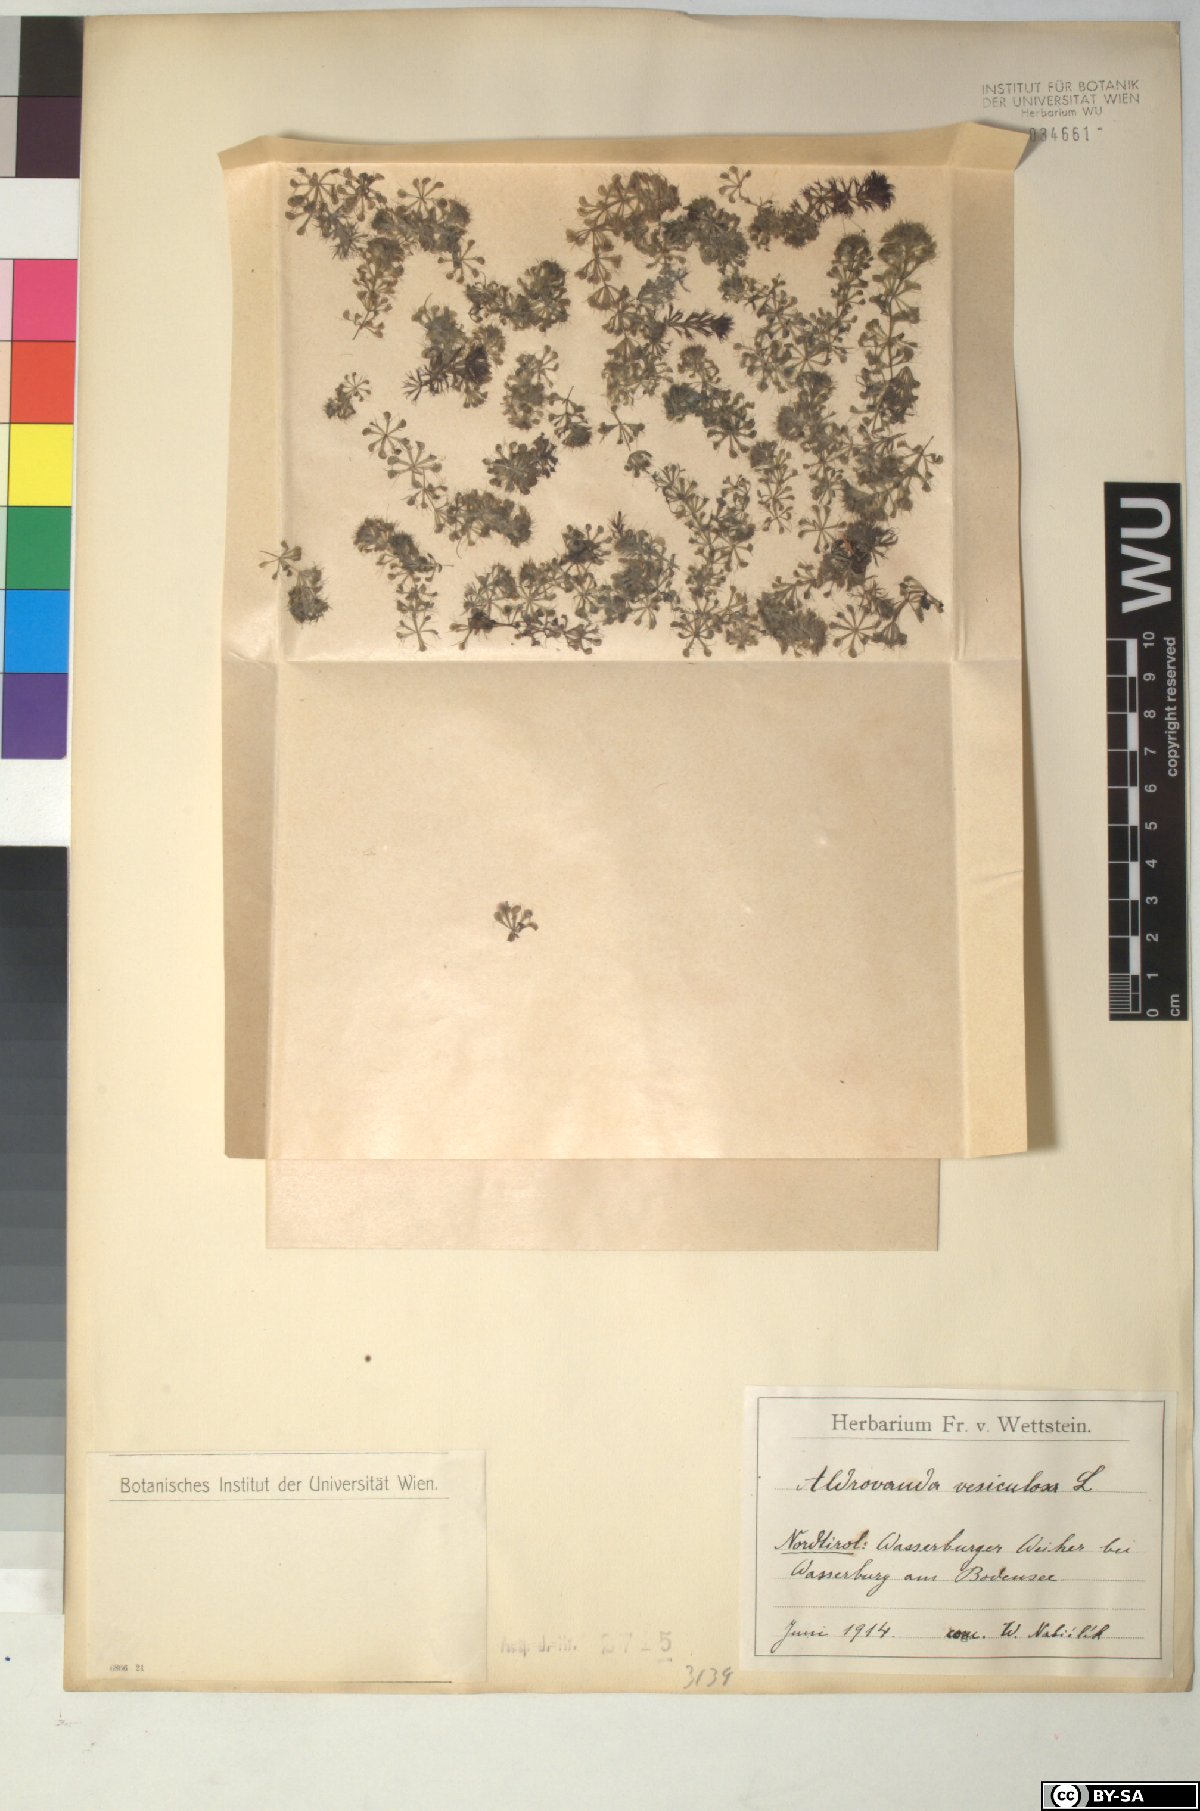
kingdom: Plantae
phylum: Tracheophyta
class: Magnoliopsida
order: Caryophyllales
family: Droseraceae
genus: Aldrovanda
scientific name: Aldrovanda vesiculosa
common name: Waterwheel plant
